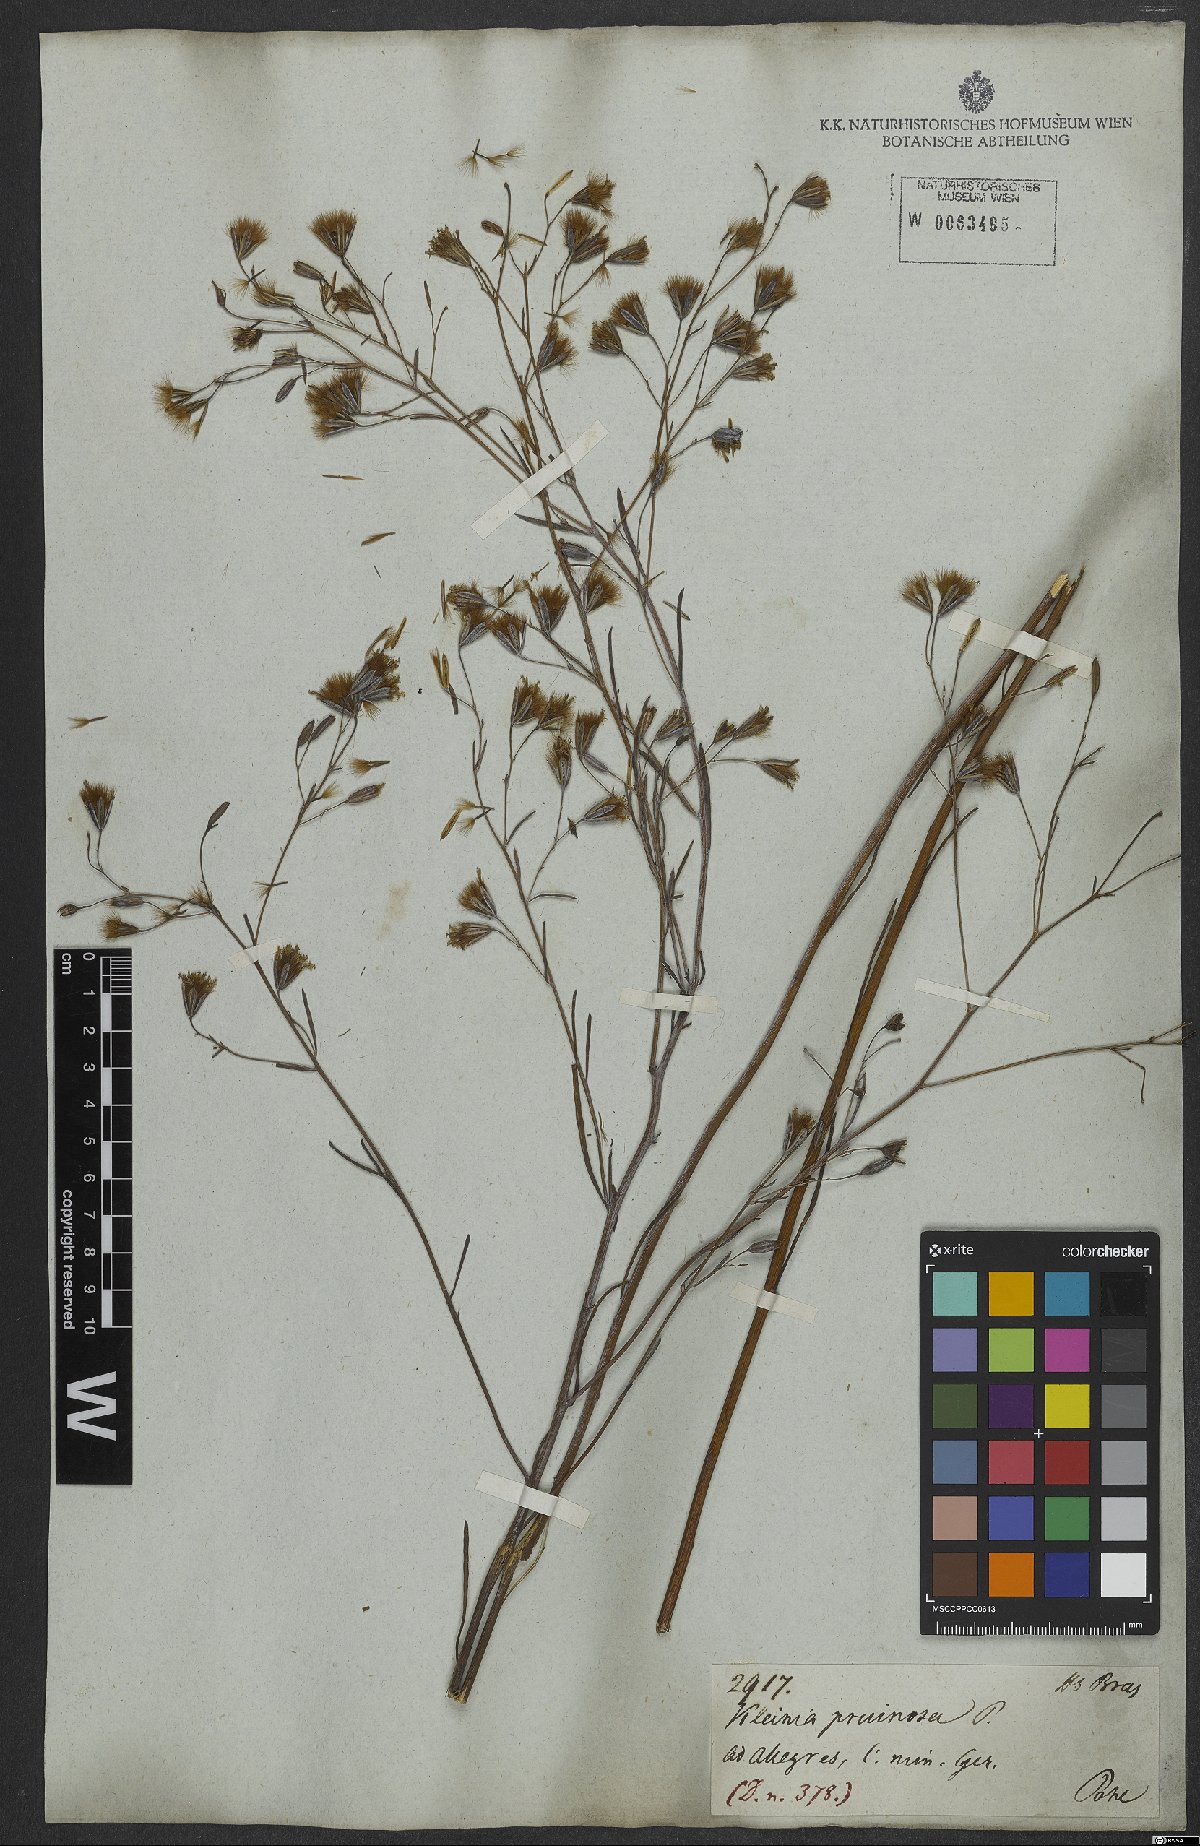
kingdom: Plantae
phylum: Tracheophyta
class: Magnoliopsida
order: Asterales
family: Asteraceae
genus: Porophyllum
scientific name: Porophyllum obscurum
